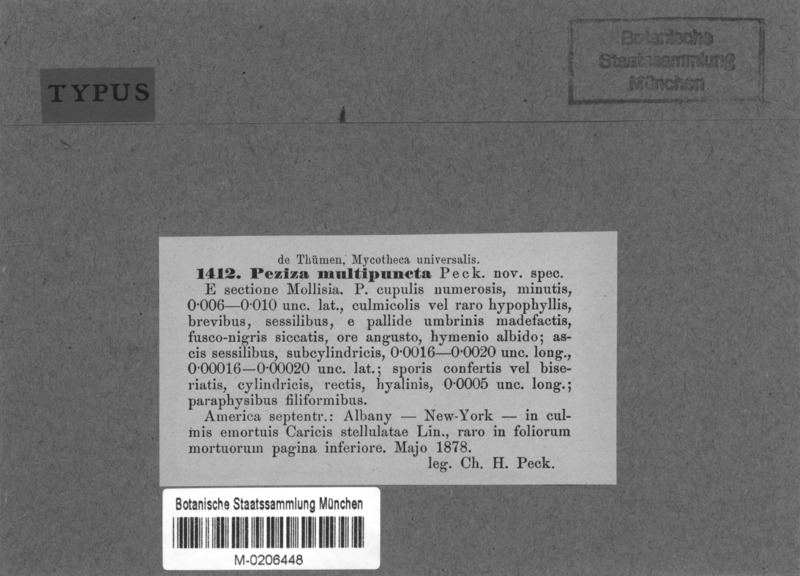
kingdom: Fungi
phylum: Ascomycota
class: Leotiomycetes
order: Helotiales
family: Dermateaceae
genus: Hysteropezizella
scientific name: Hysteropezizella multipuncta
